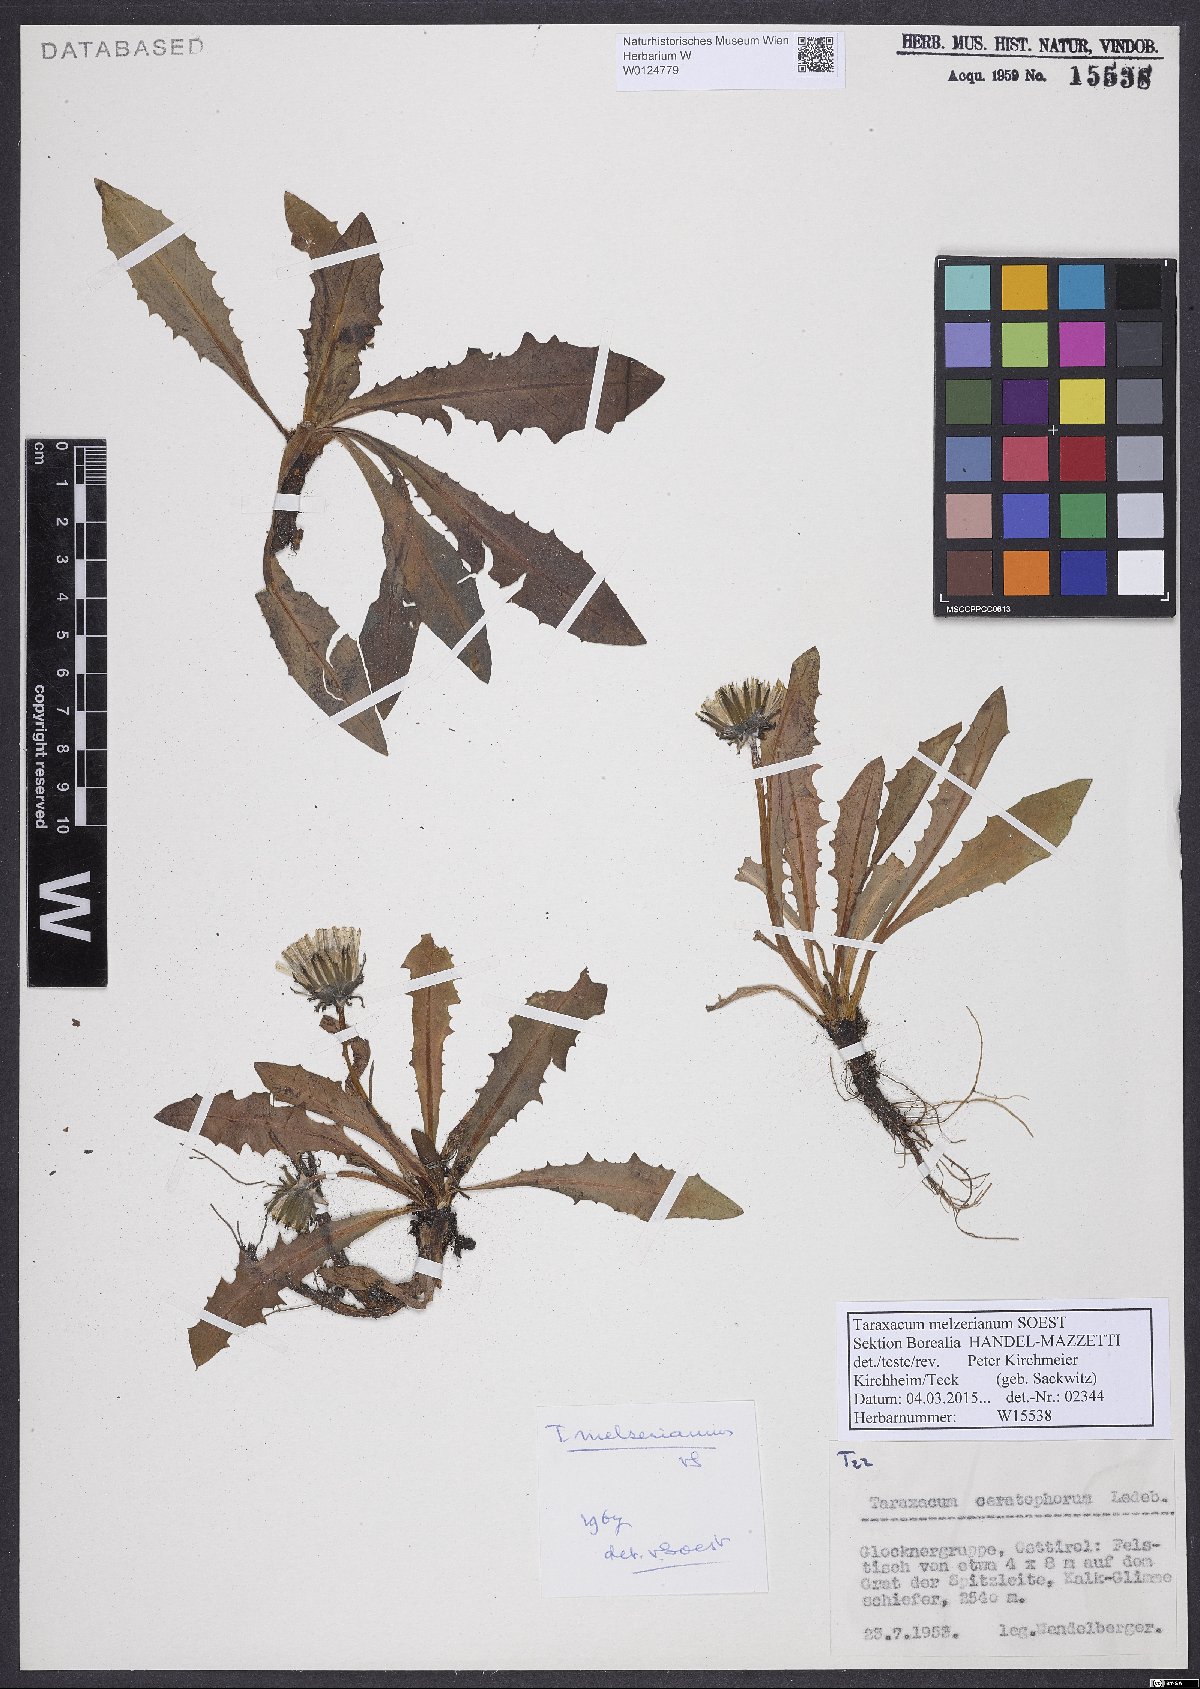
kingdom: Plantae
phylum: Tracheophyta
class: Magnoliopsida
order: Asterales
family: Asteraceae
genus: Taraxacum
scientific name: Taraxacum melzerianum
